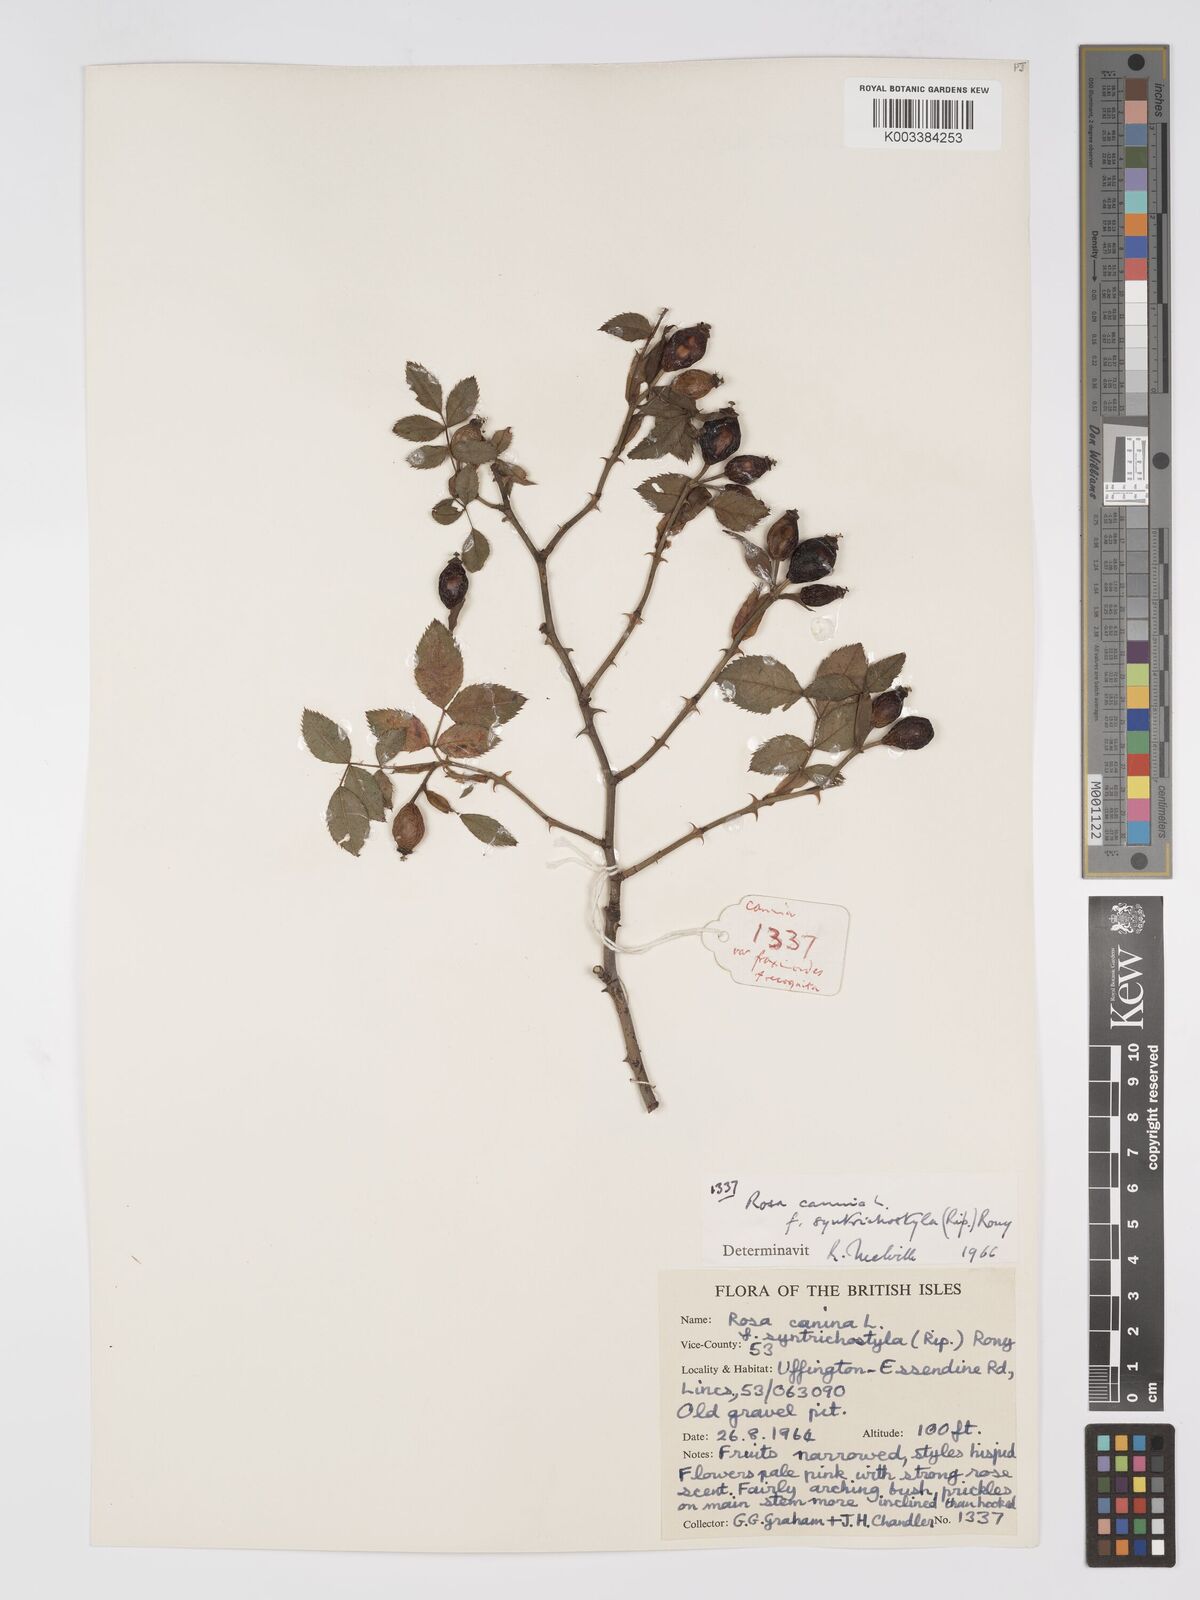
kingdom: Plantae
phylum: Tracheophyta
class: Magnoliopsida
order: Rosales
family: Rosaceae
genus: Rosa
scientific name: Rosa canina
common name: Dog rose
